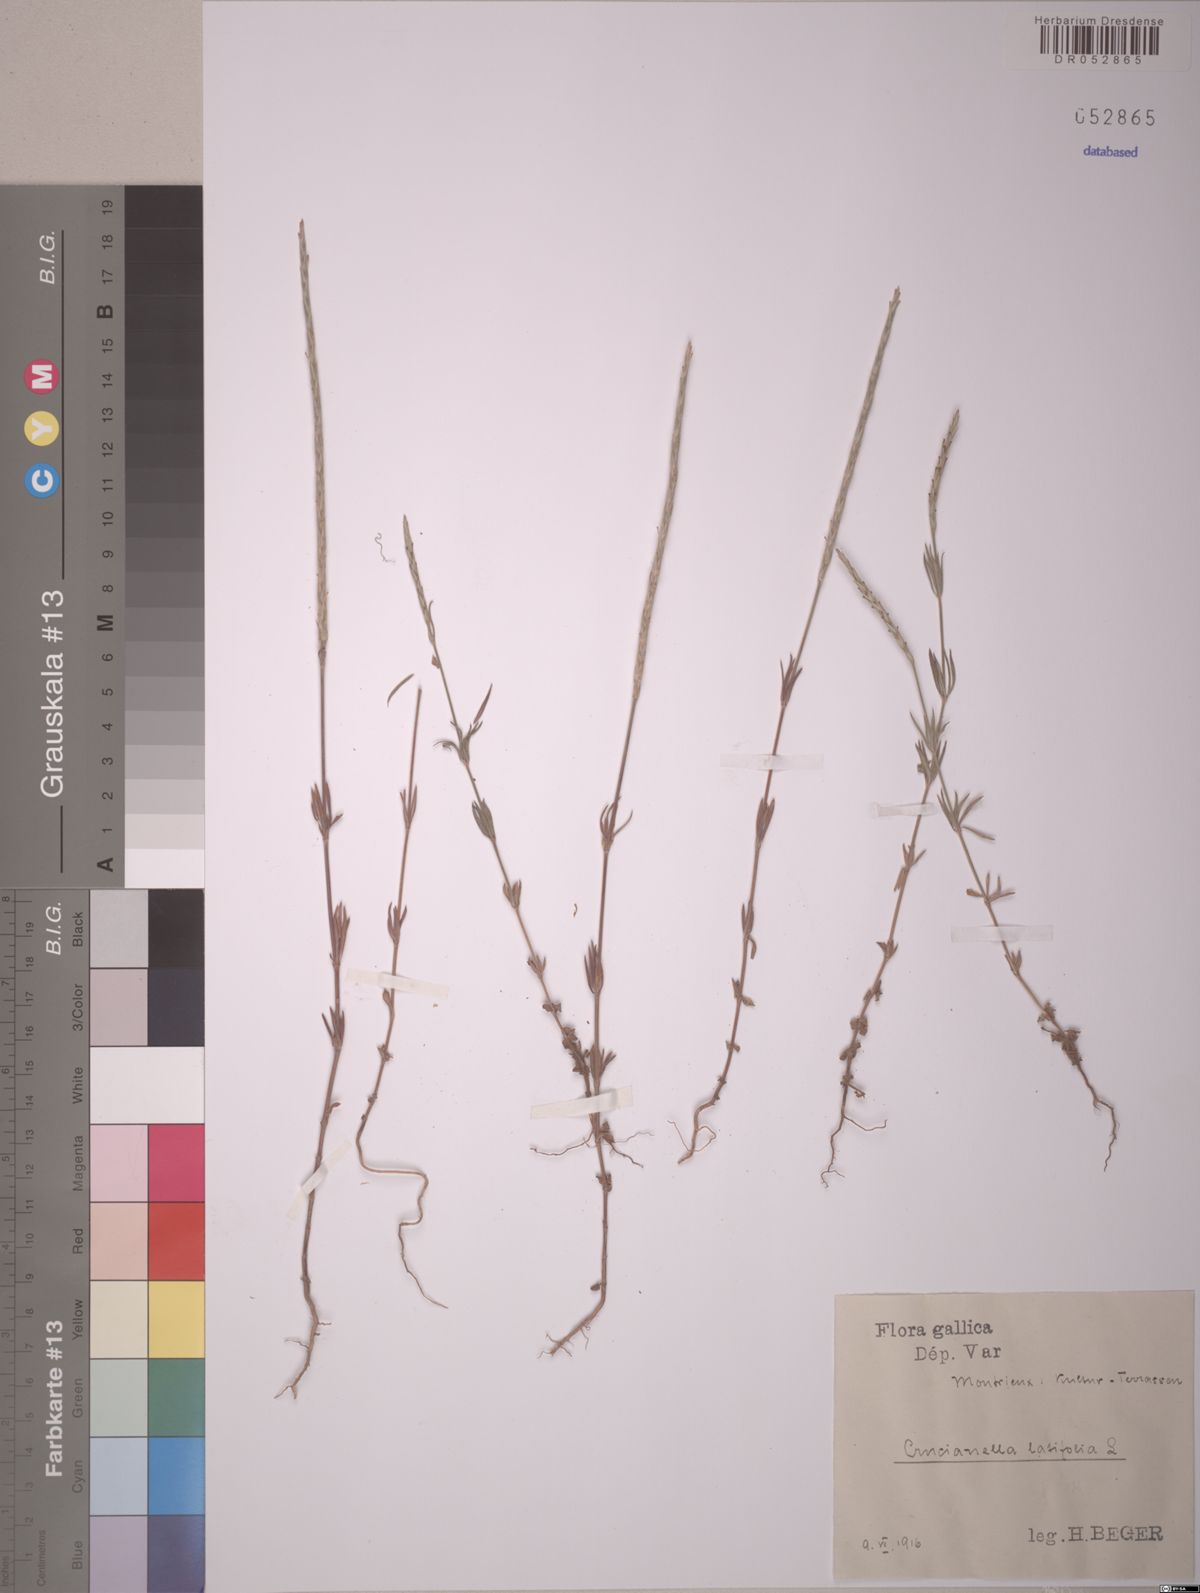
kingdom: Plantae
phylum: Tracheophyta
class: Magnoliopsida
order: Gentianales
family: Rubiaceae
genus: Crucianella
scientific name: Crucianella latifolia
